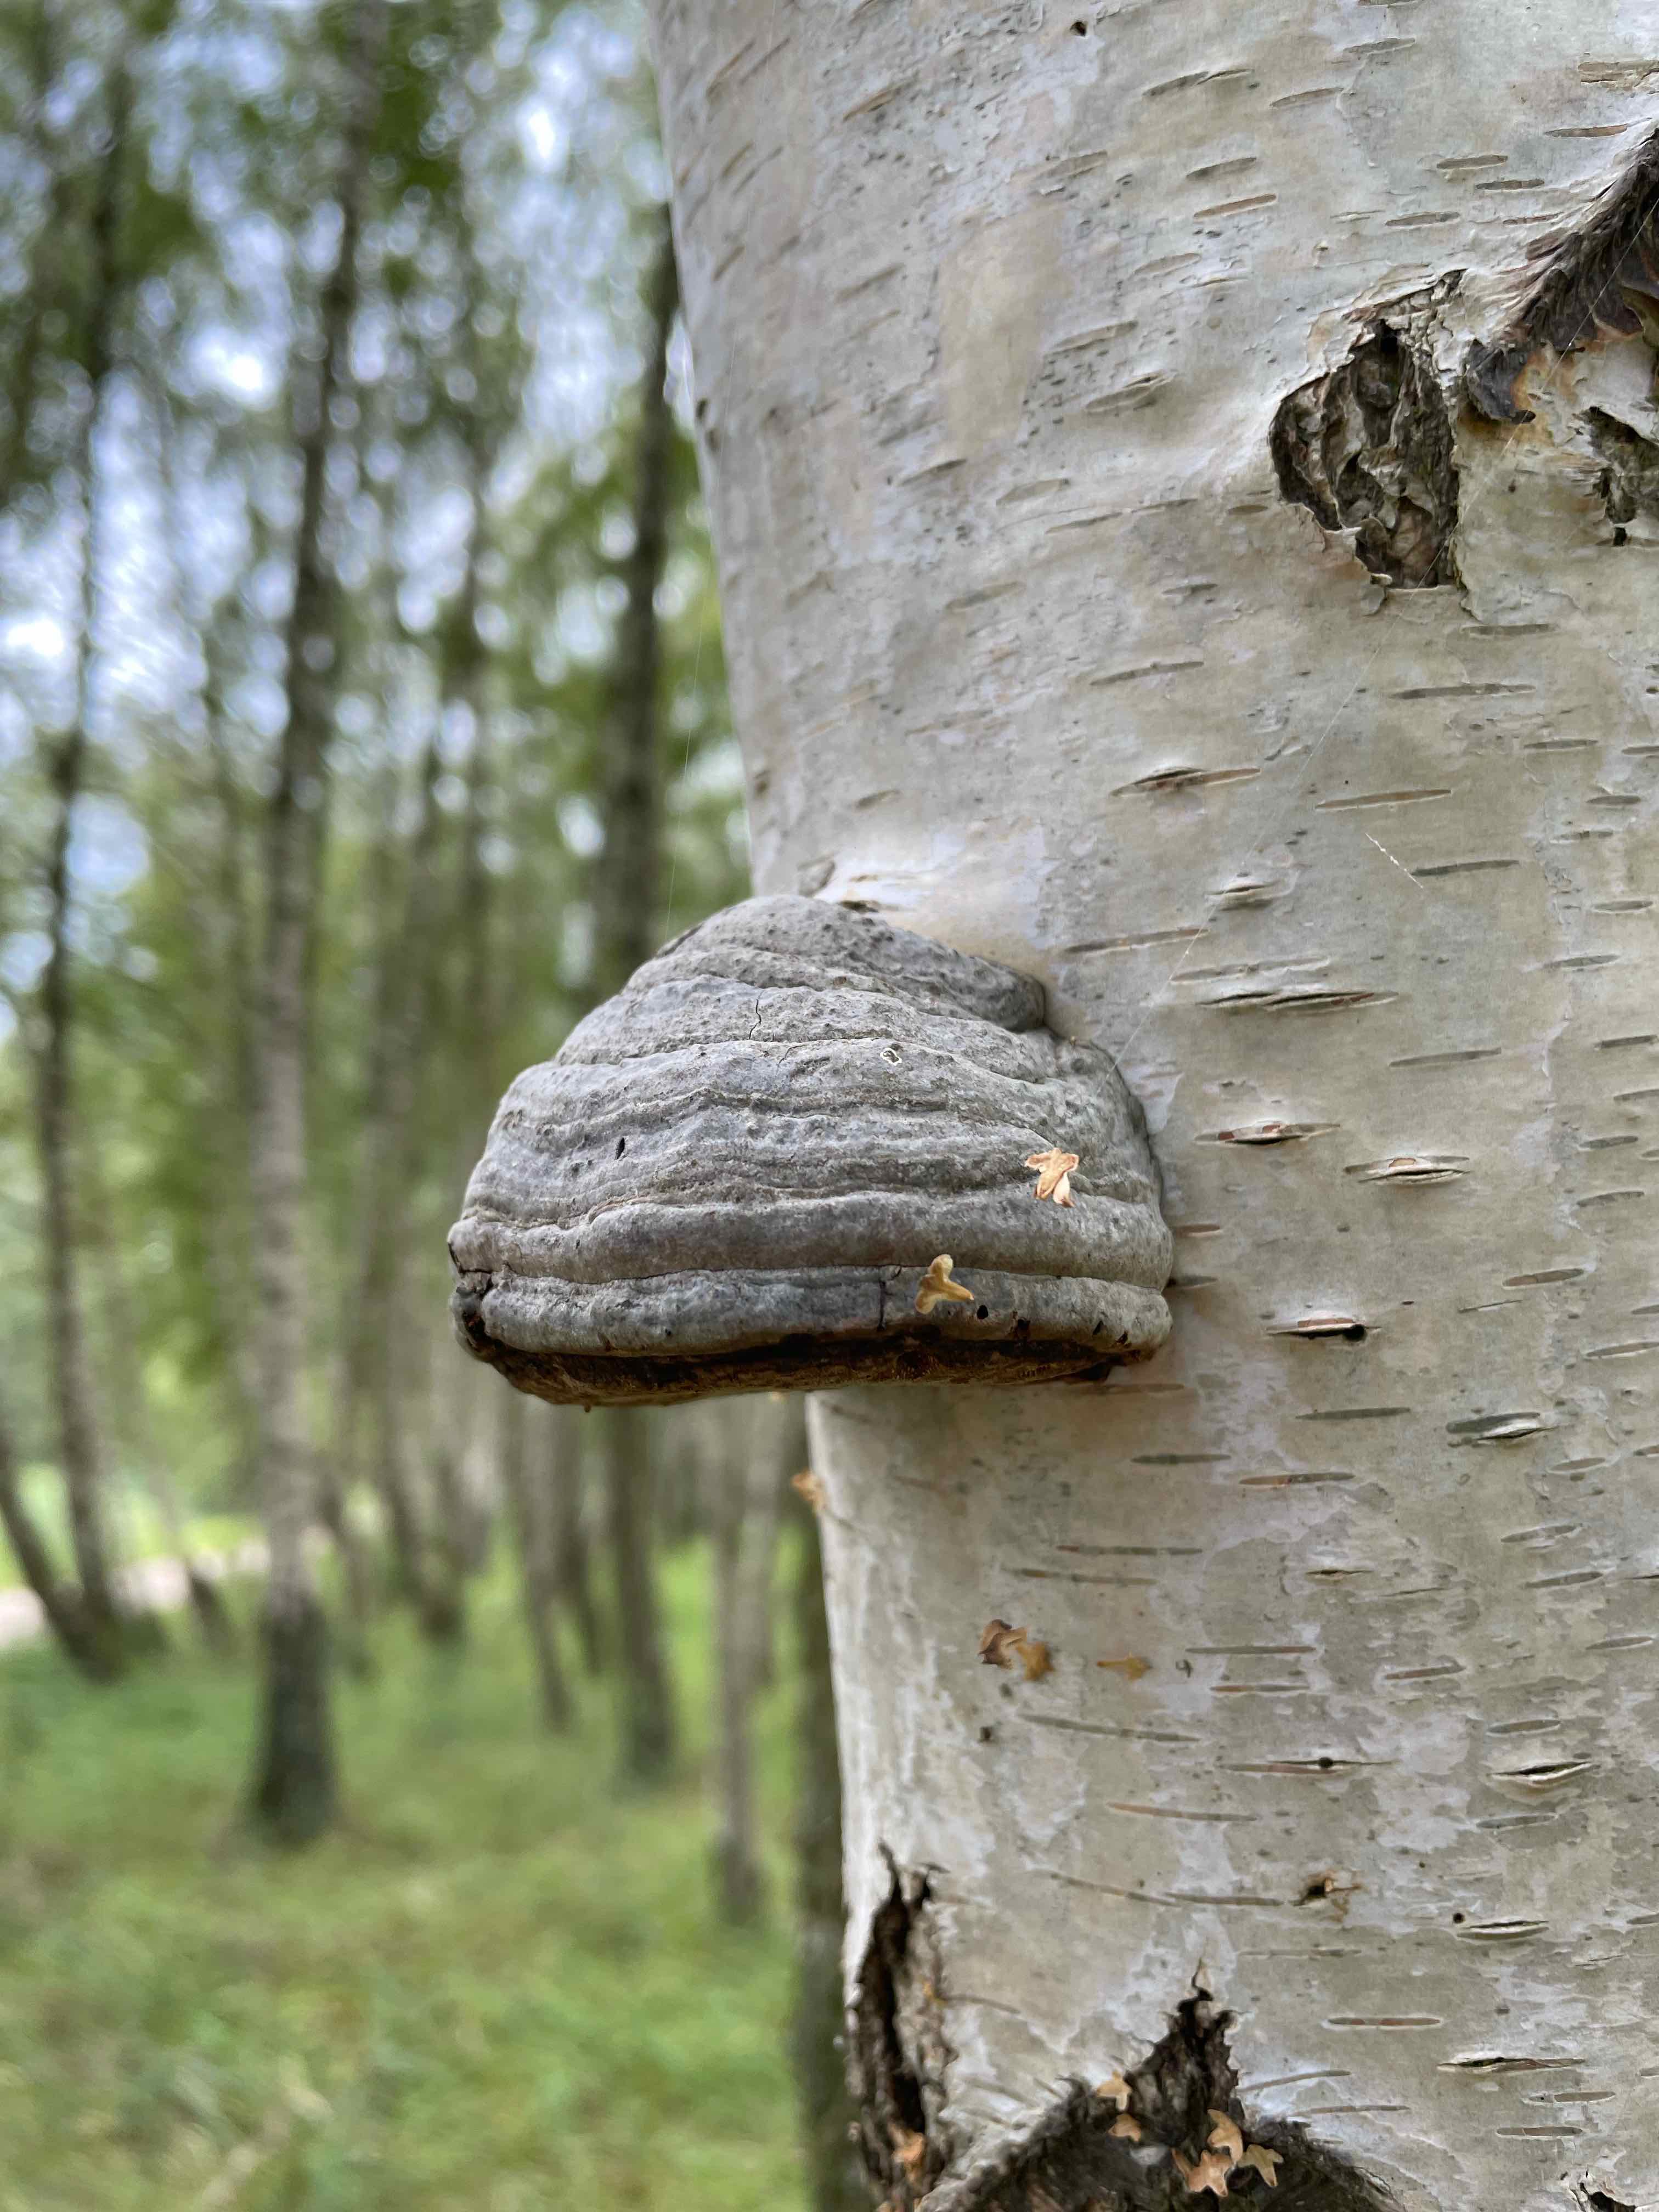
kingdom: Fungi
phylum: Basidiomycota
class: Agaricomycetes
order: Polyporales
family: Polyporaceae
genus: Fomes
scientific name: Fomes fomentarius
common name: tøndersvamp
